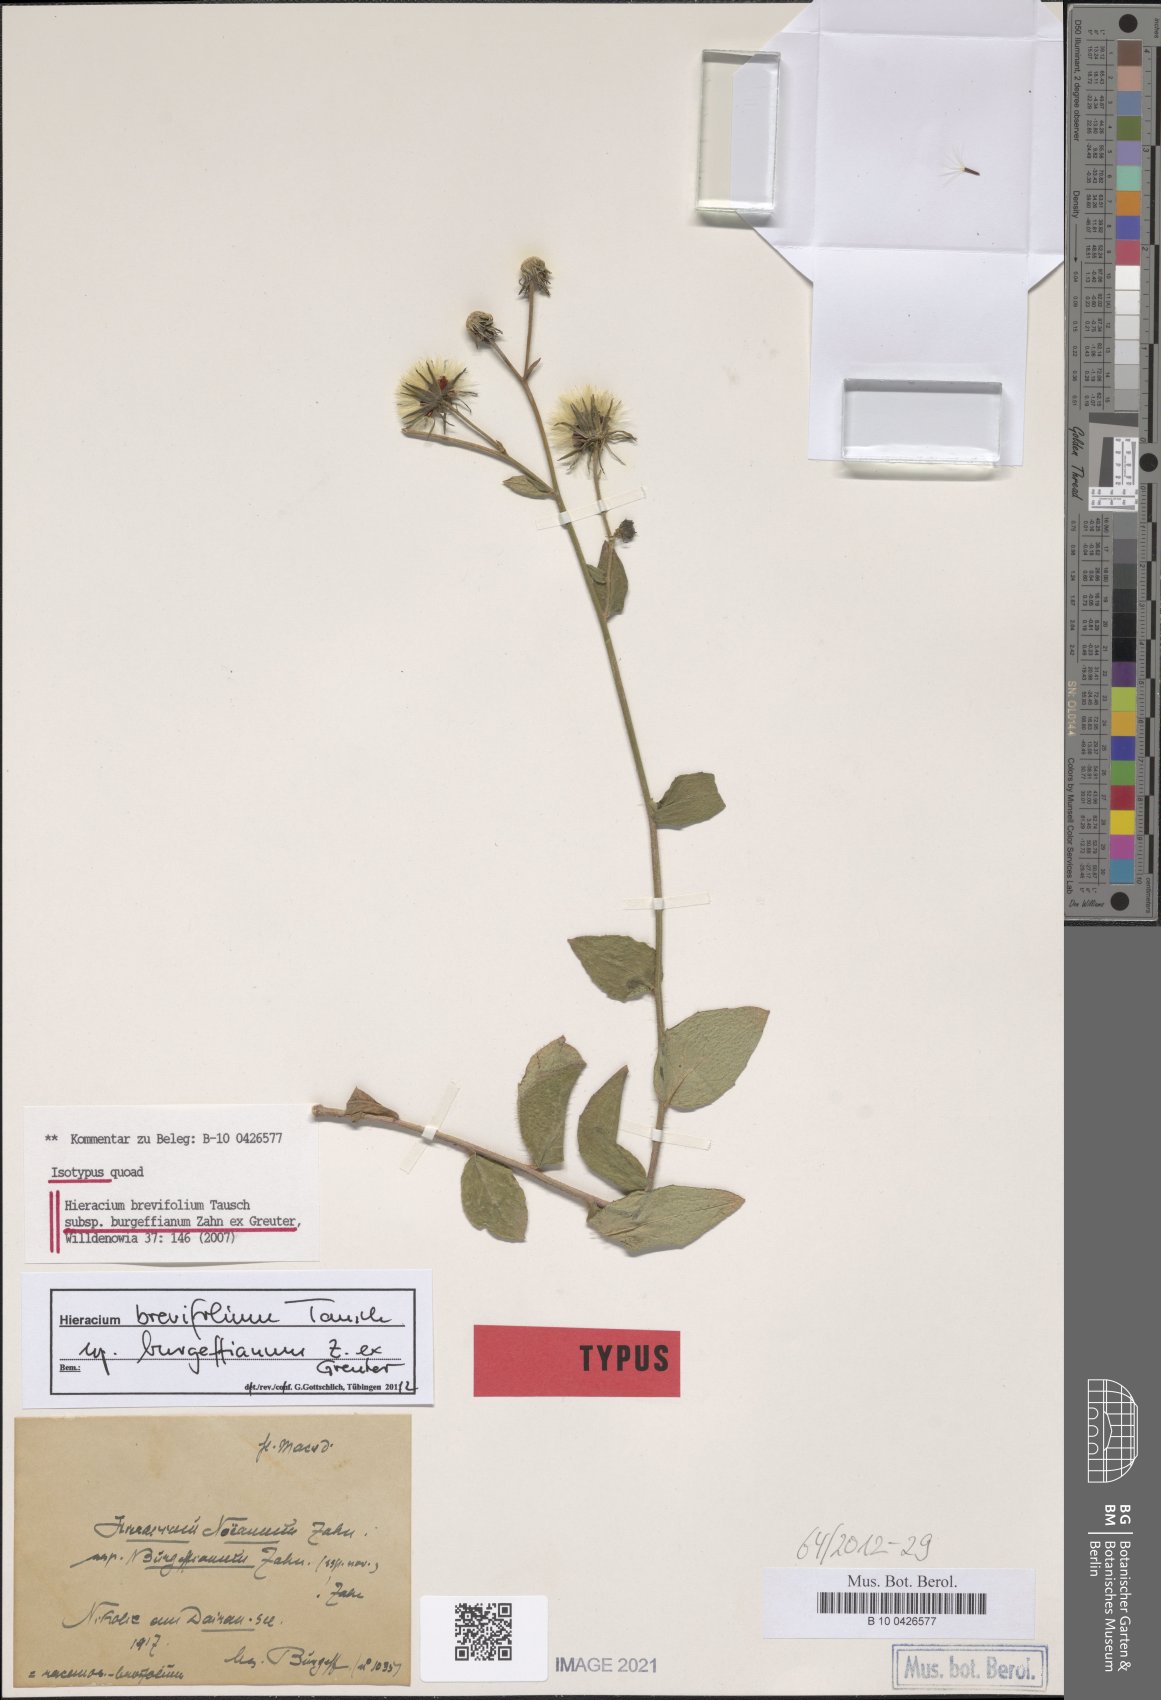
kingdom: Plantae
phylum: Tracheophyta
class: Magnoliopsida
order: Asterales
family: Asteraceae
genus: Hieracium
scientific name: Hieracium brevifolium
